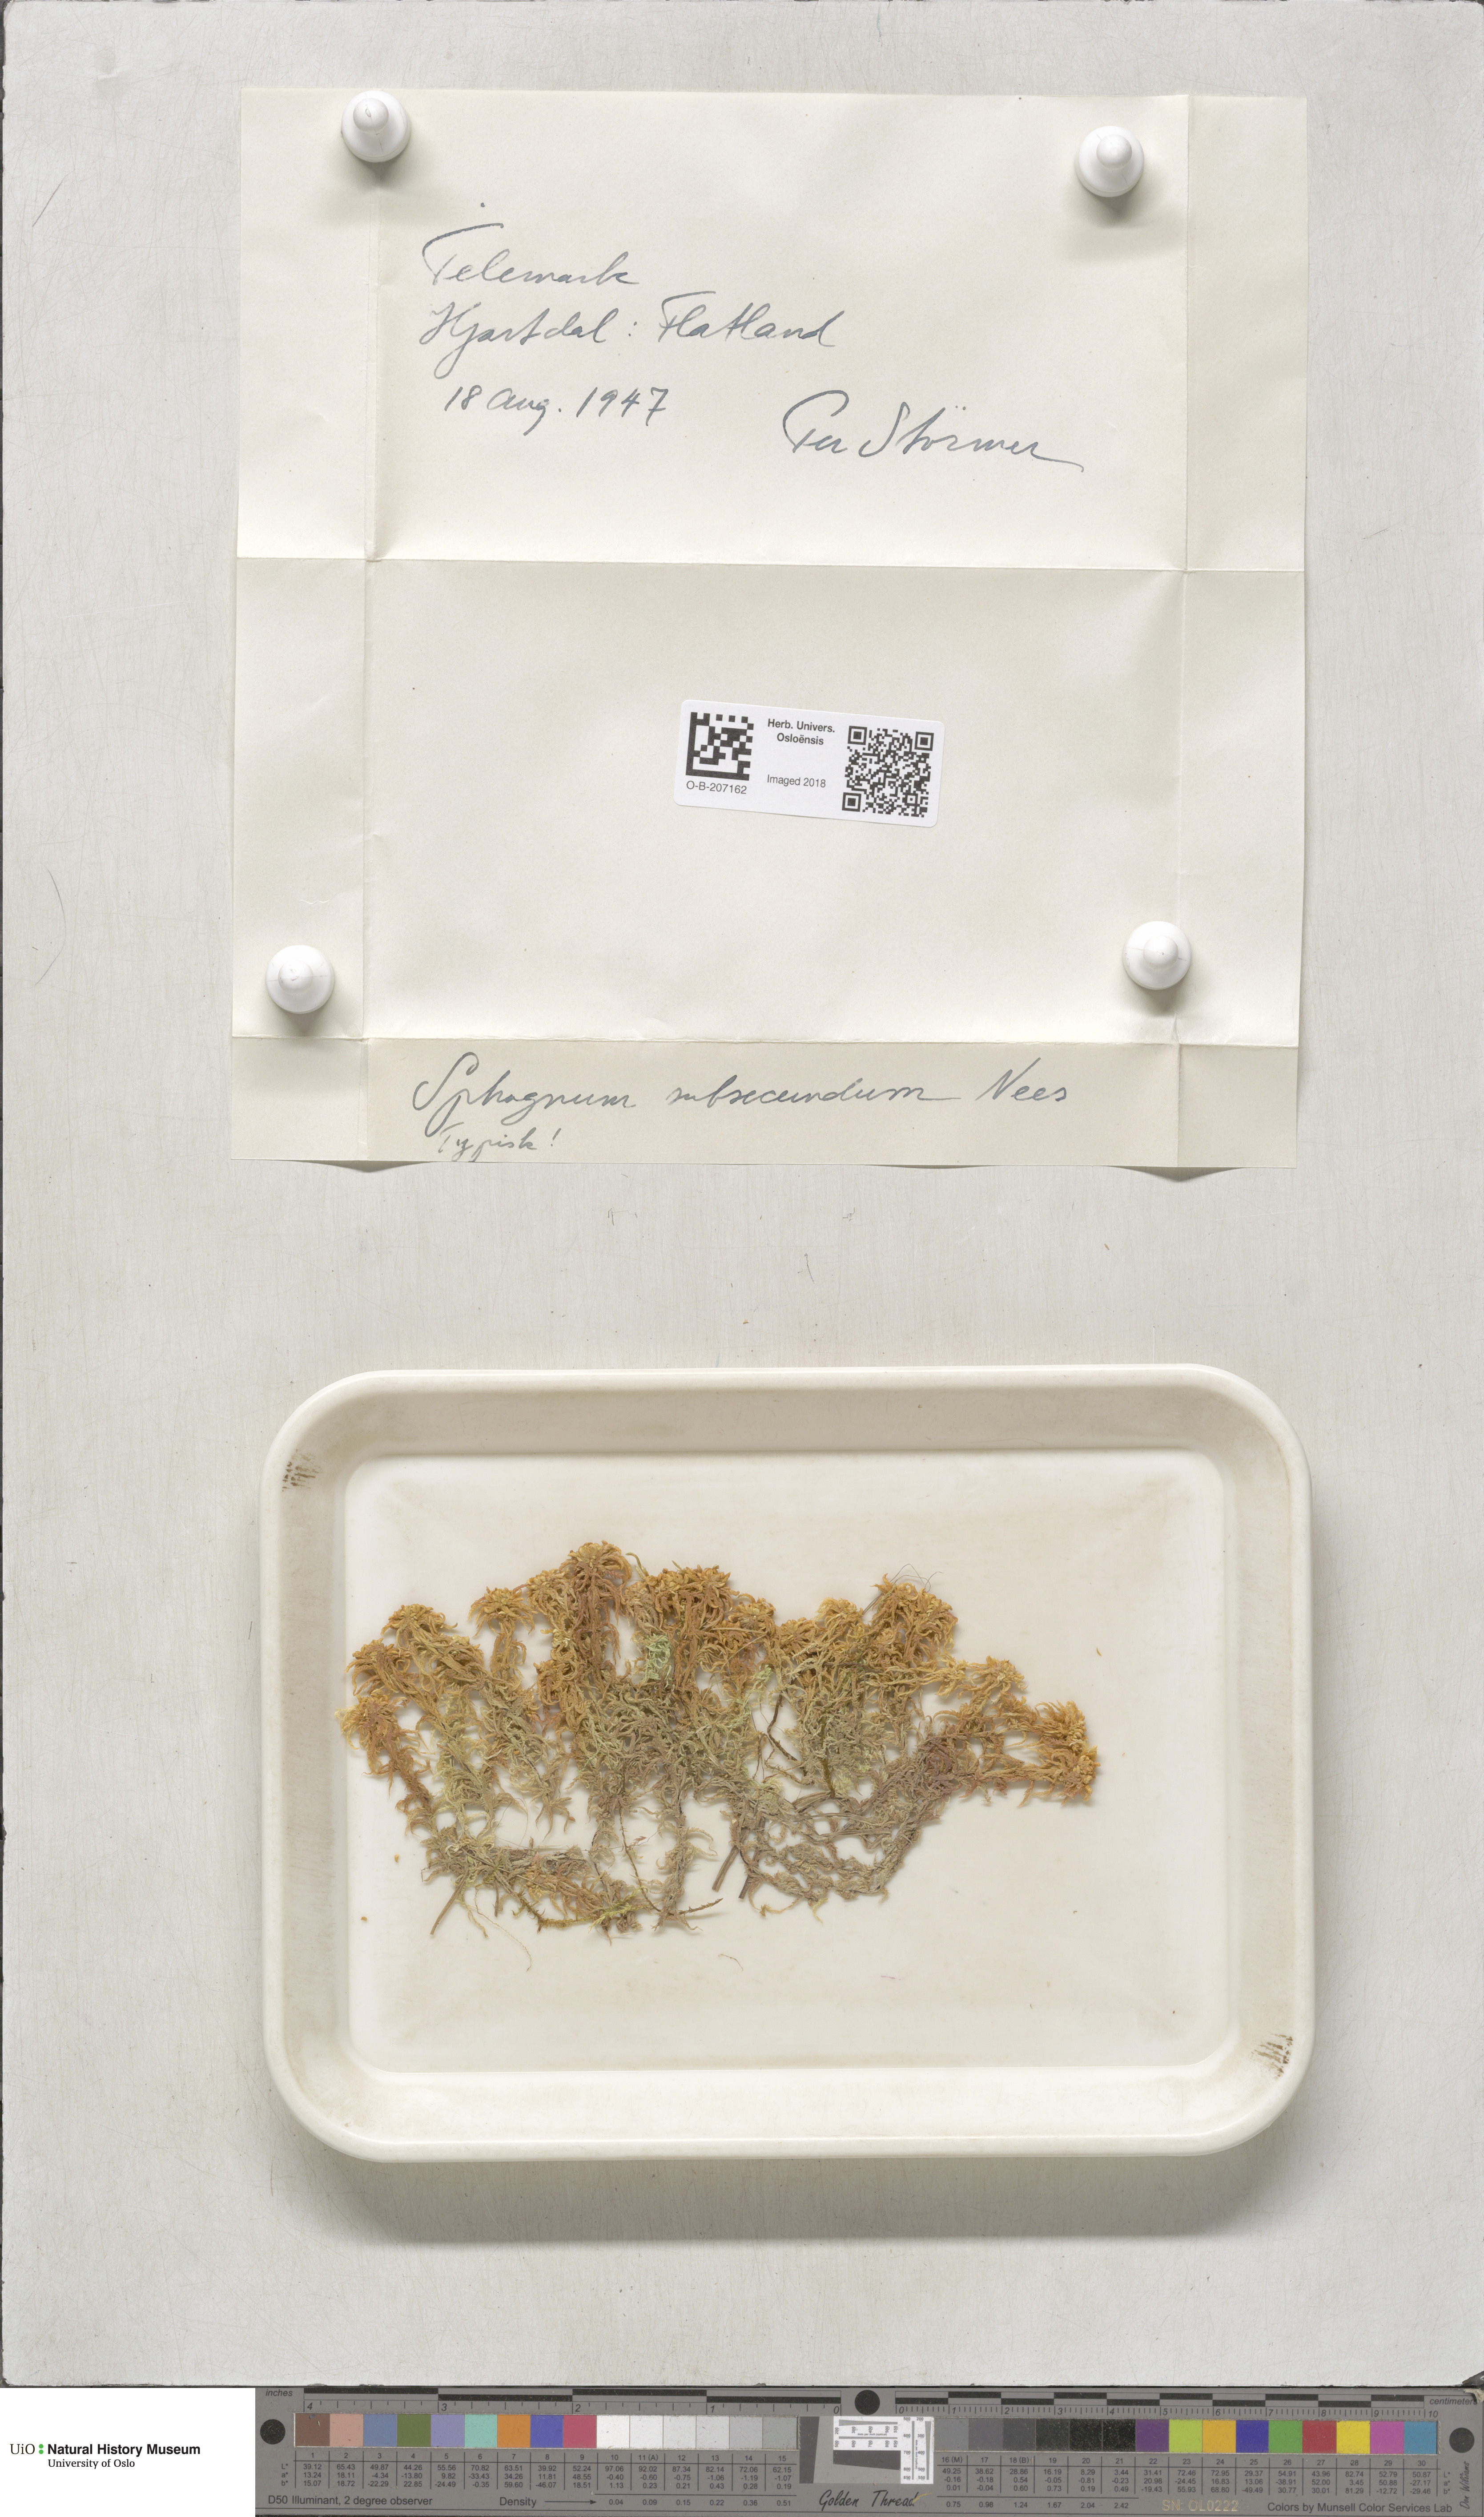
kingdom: Plantae
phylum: Bryophyta
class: Sphagnopsida
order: Sphagnales
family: Sphagnaceae
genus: Sphagnum
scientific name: Sphagnum subsecundum
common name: Orange peat moss
